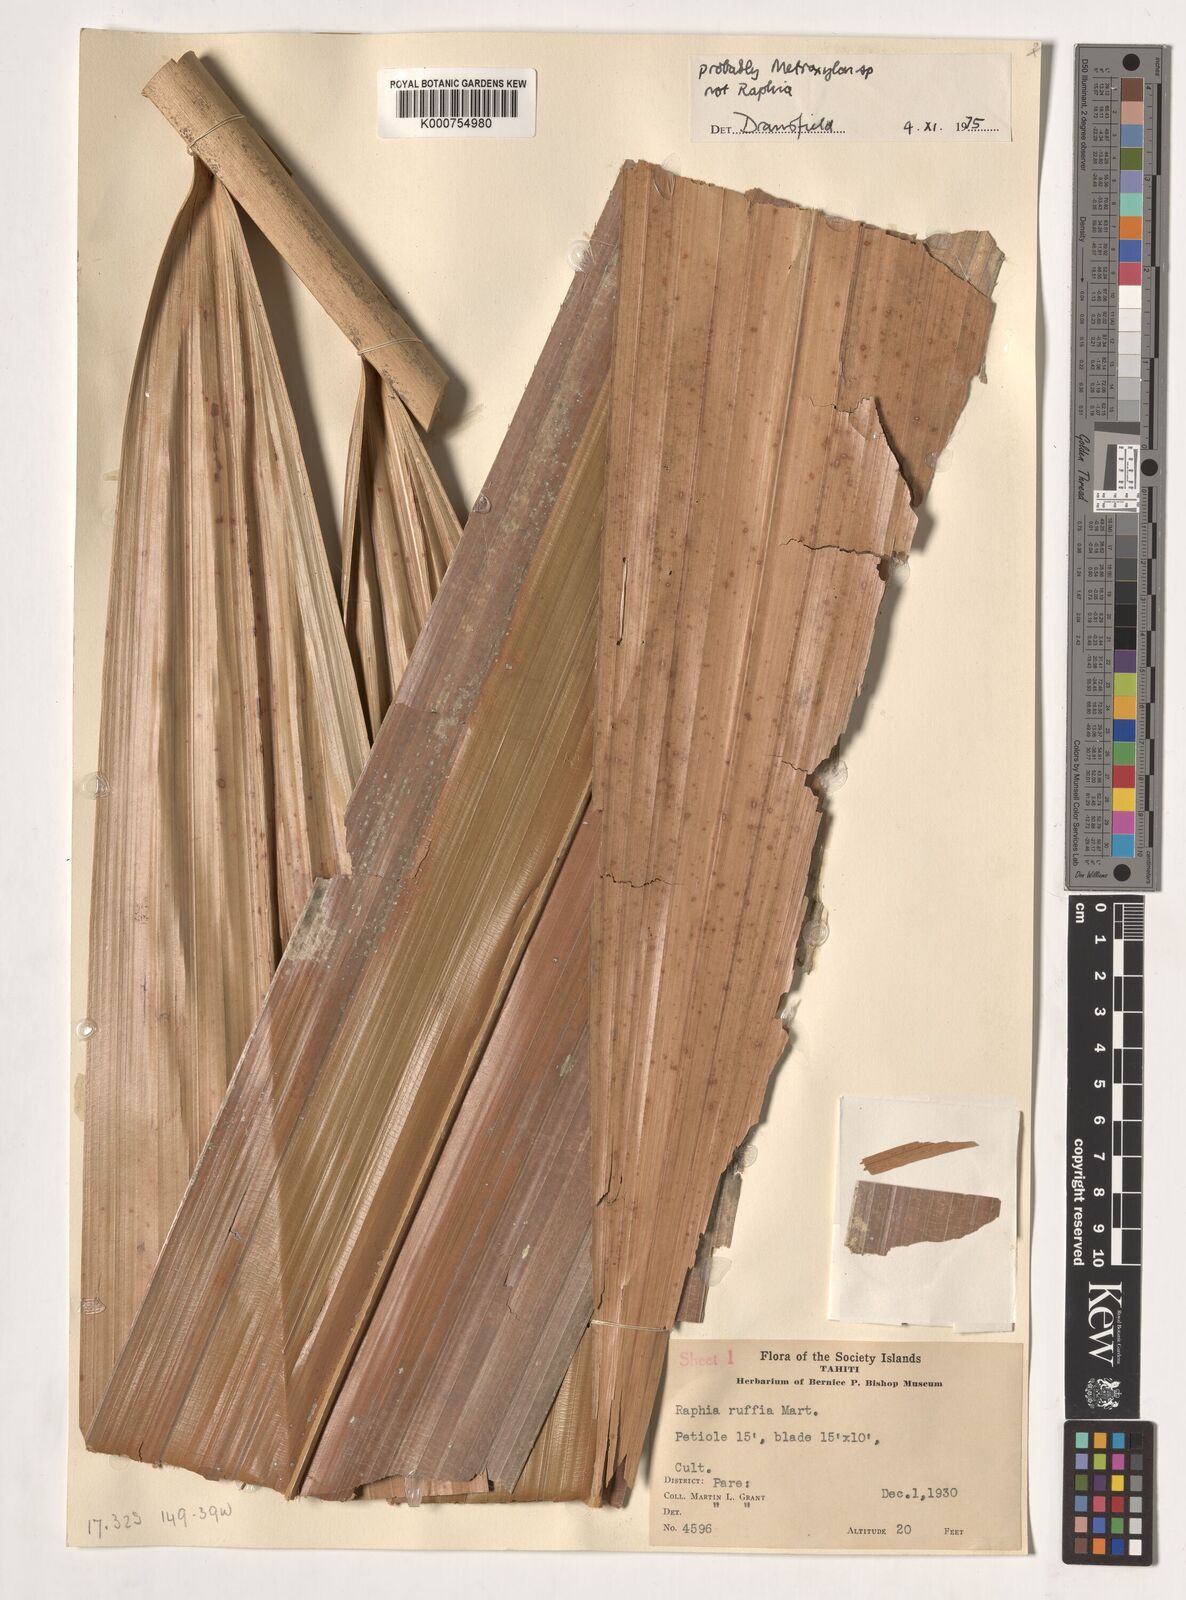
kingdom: Plantae
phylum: Tracheophyta
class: Liliopsida
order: Arecales
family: Arecaceae
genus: Metroxylon
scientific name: Metroxylon
